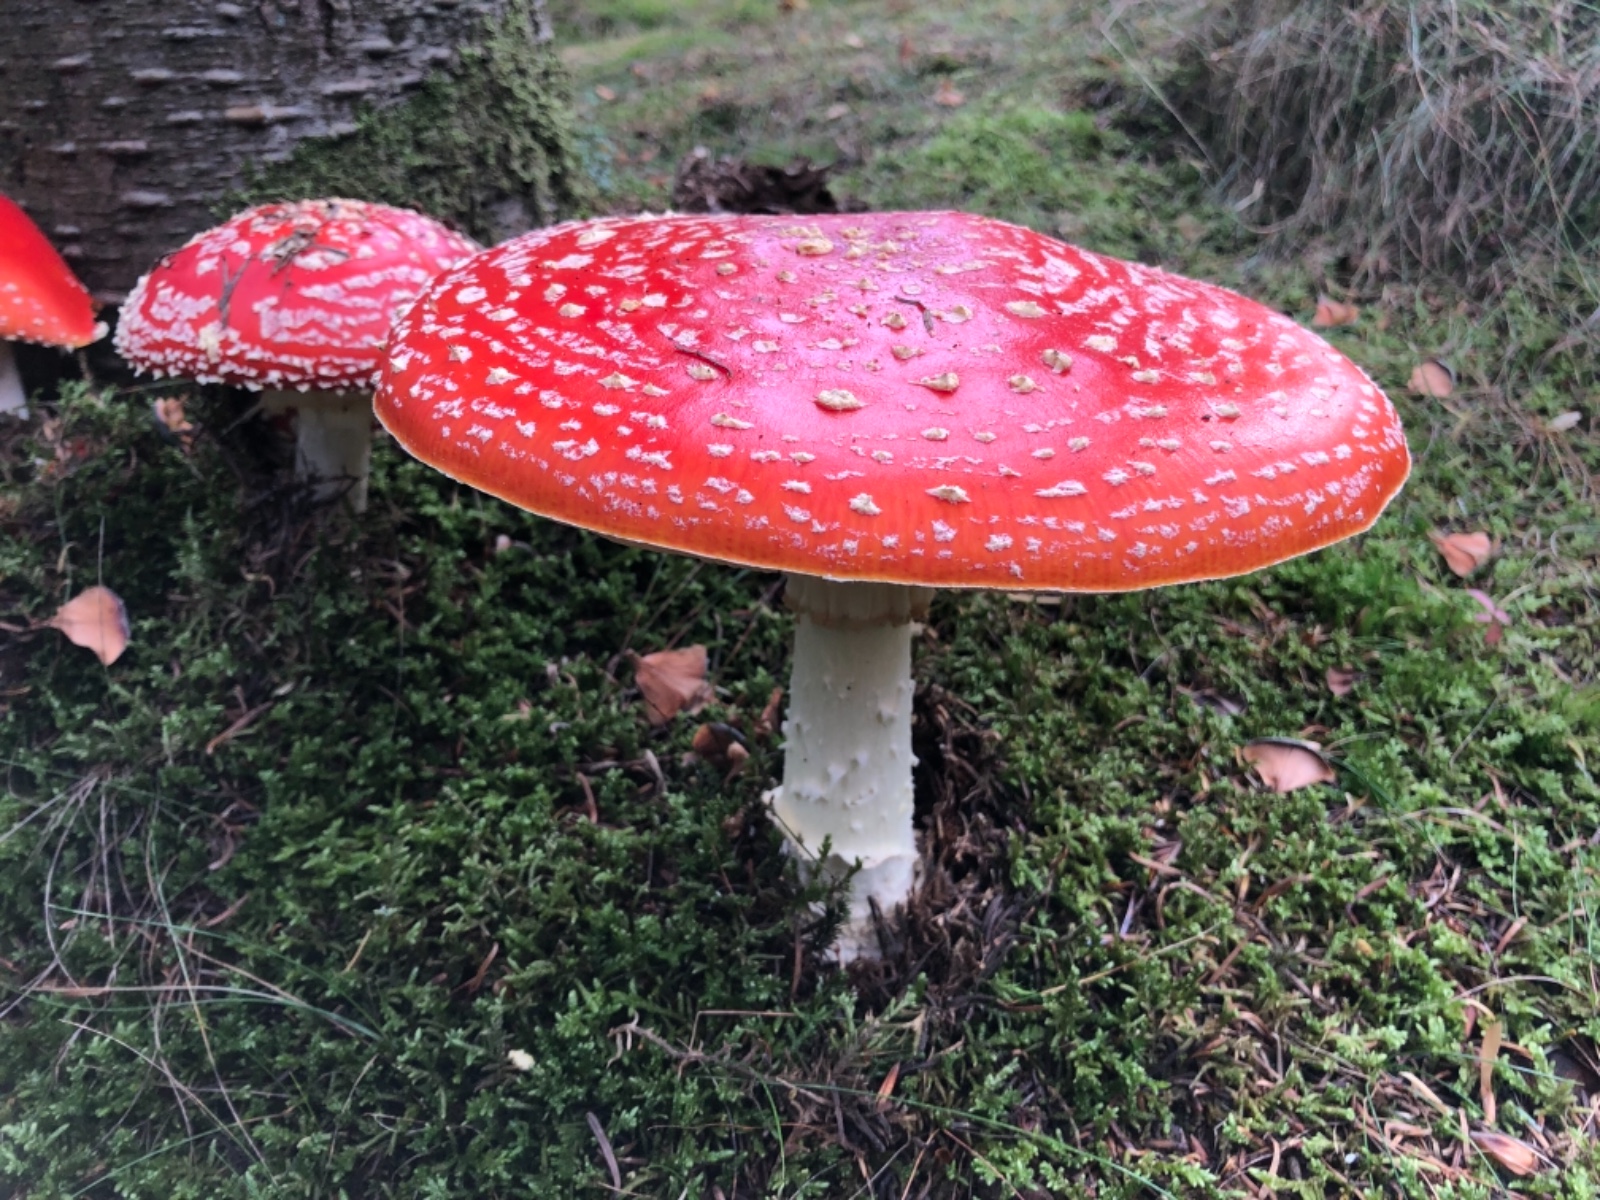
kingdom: Fungi
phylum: Basidiomycota
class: Agaricomycetes
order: Agaricales
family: Amanitaceae
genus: Amanita
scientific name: Amanita muscaria
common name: rød fluesvamp
